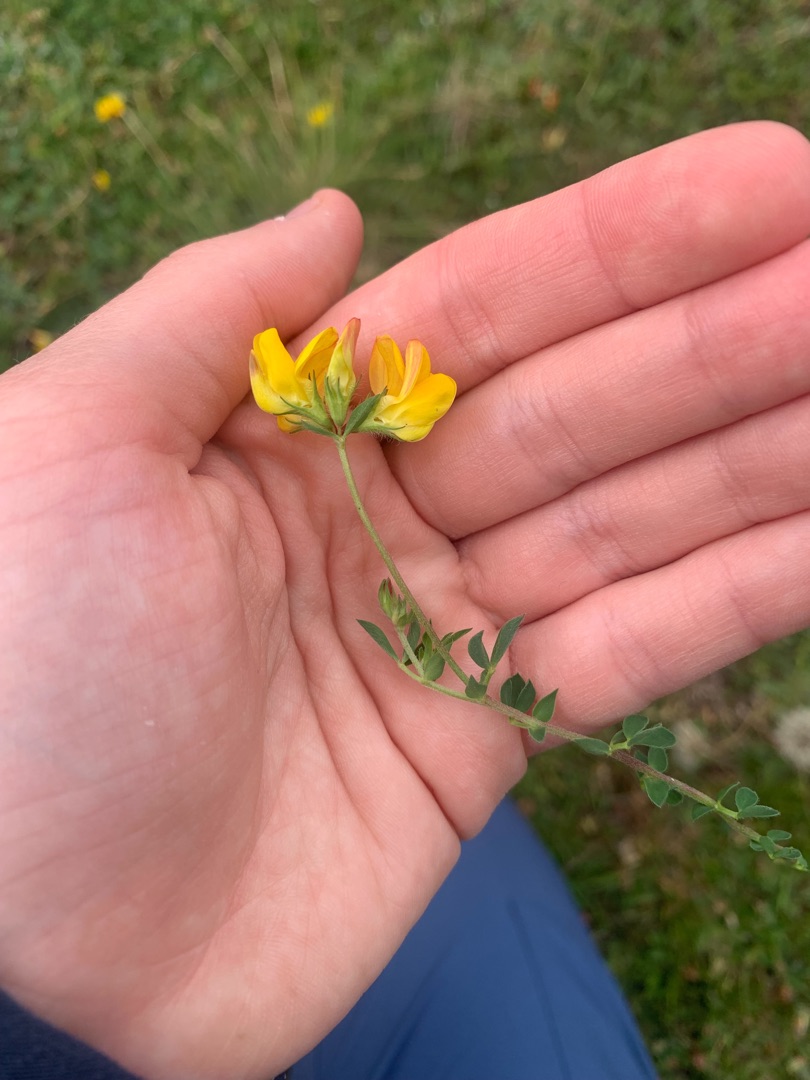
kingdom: Plantae
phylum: Tracheophyta
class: Magnoliopsida
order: Fabales
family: Fabaceae
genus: Lotus
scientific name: Lotus corniculatus
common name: Almindelig kællingetand
